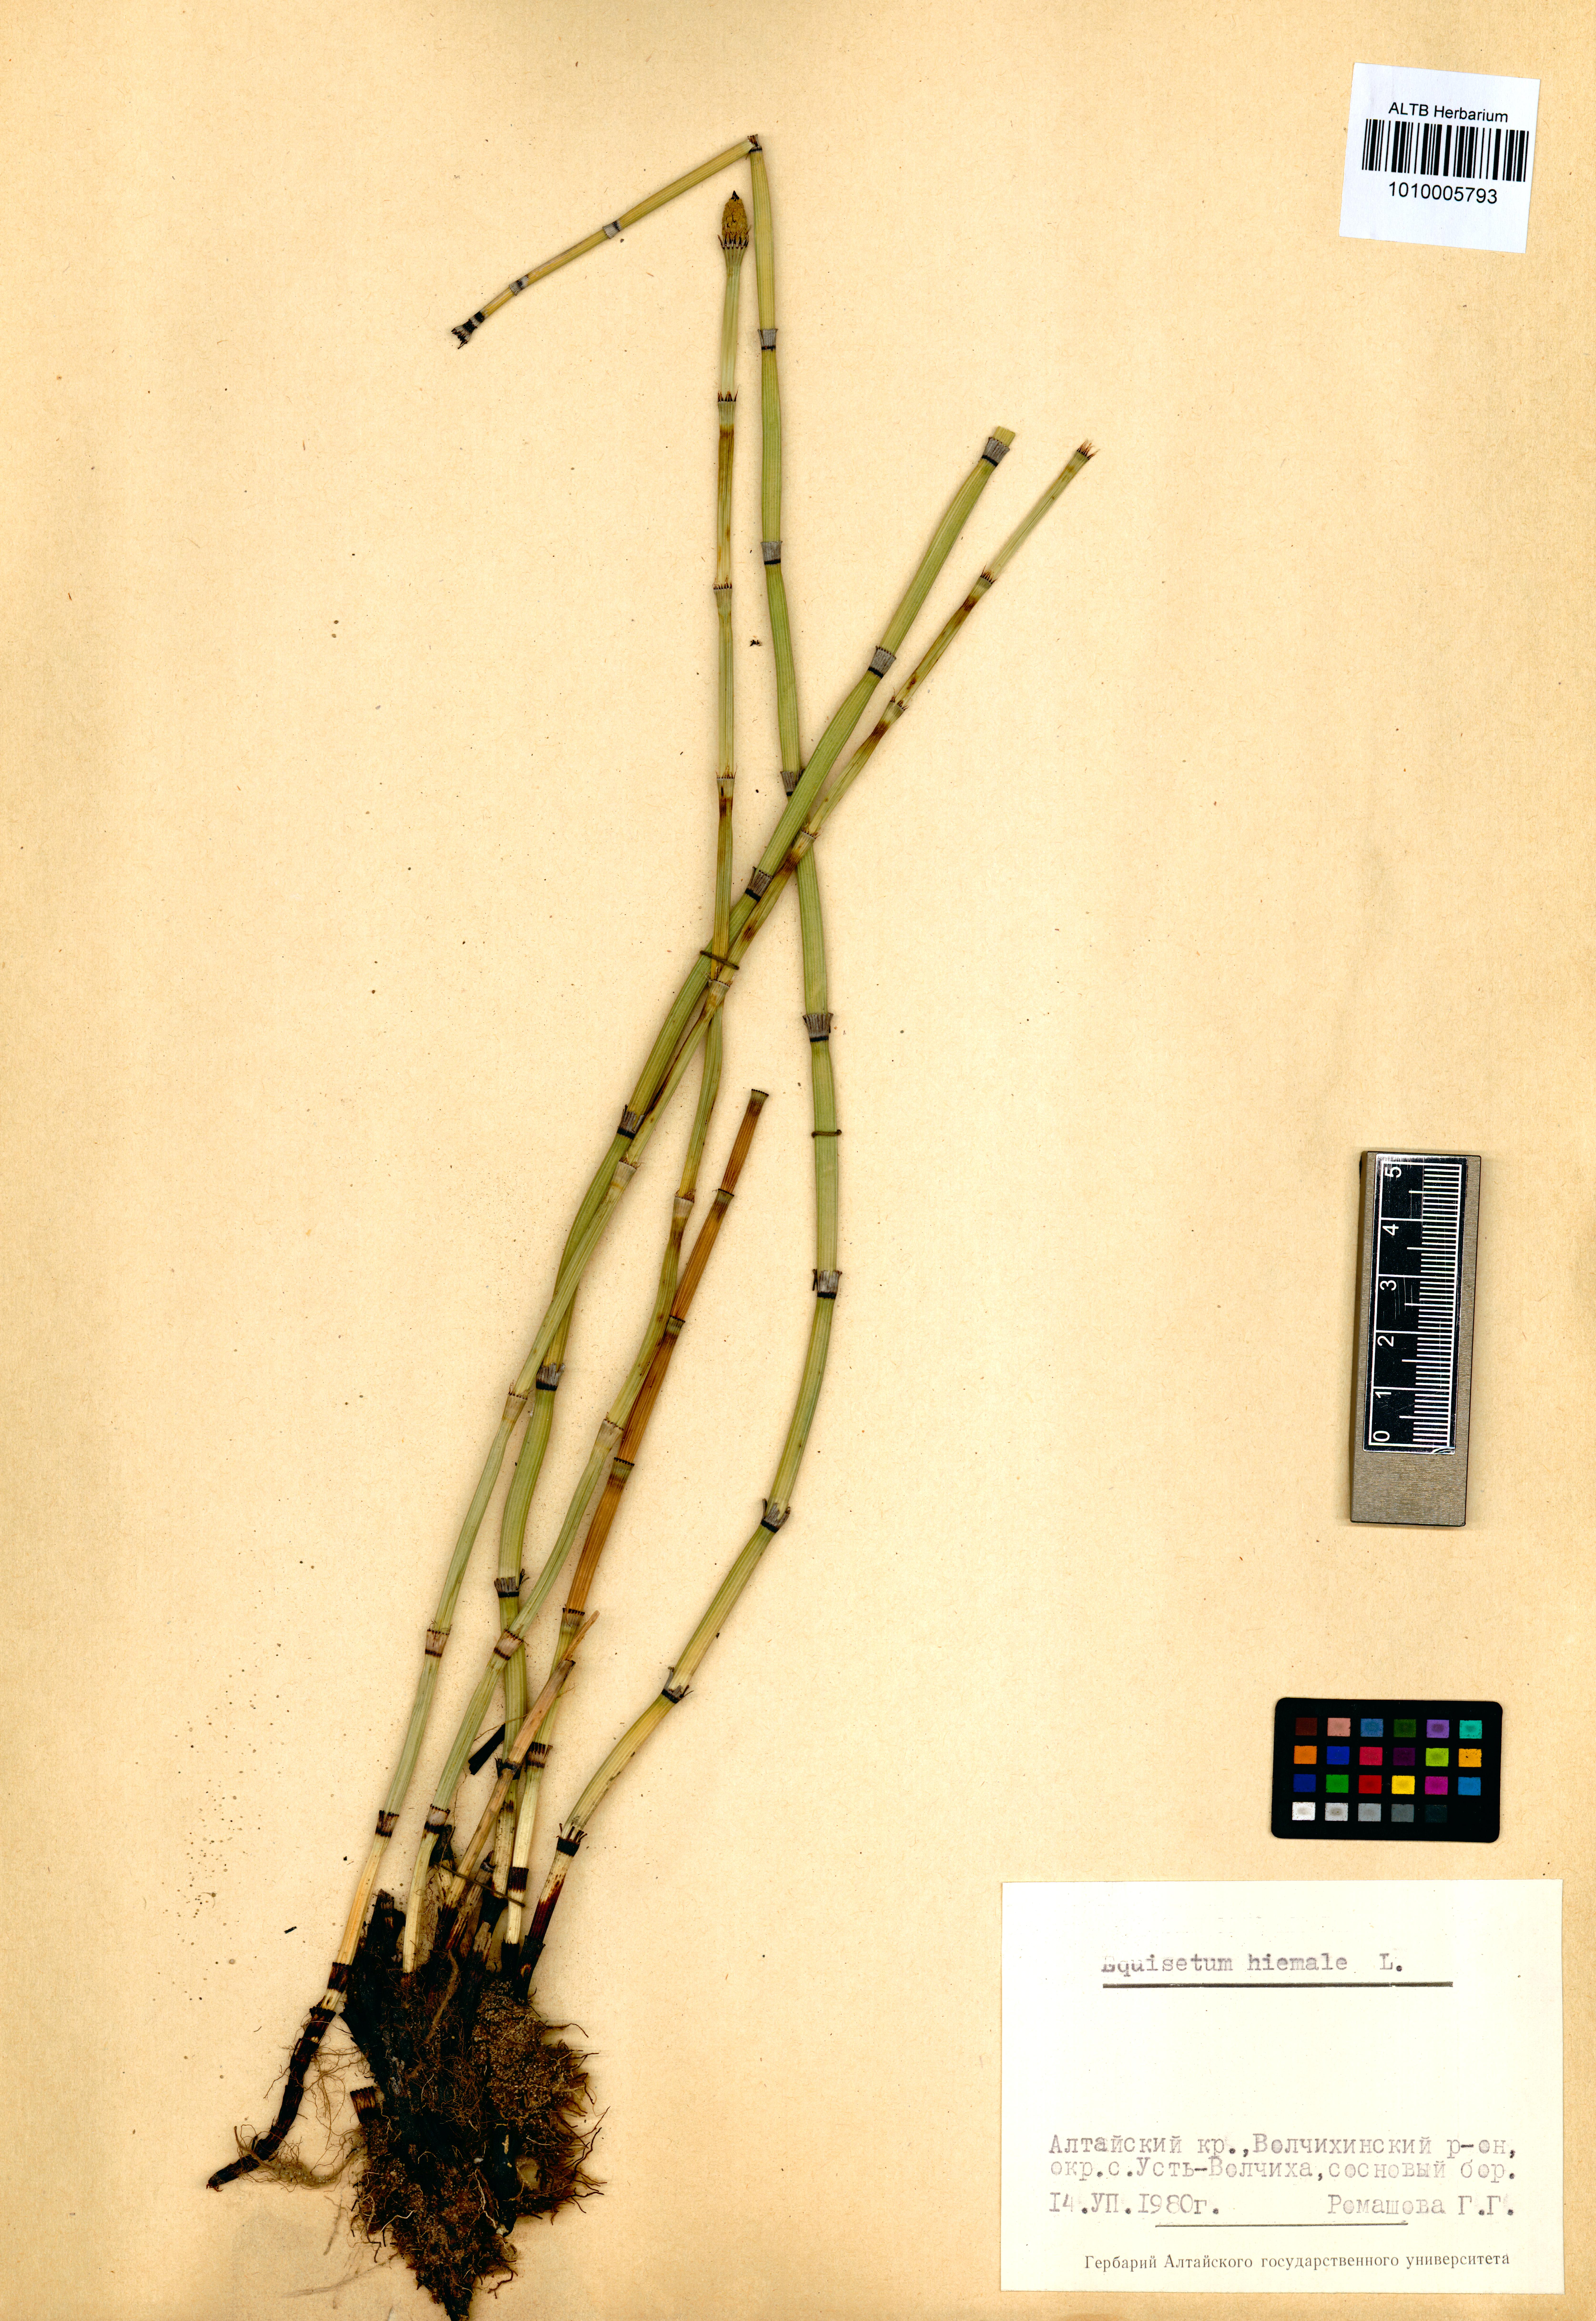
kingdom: Plantae
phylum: Tracheophyta
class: Polypodiopsida
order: Equisetales
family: Equisetaceae
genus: Equisetum
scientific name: Equisetum hyemale
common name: Rough horsetail
